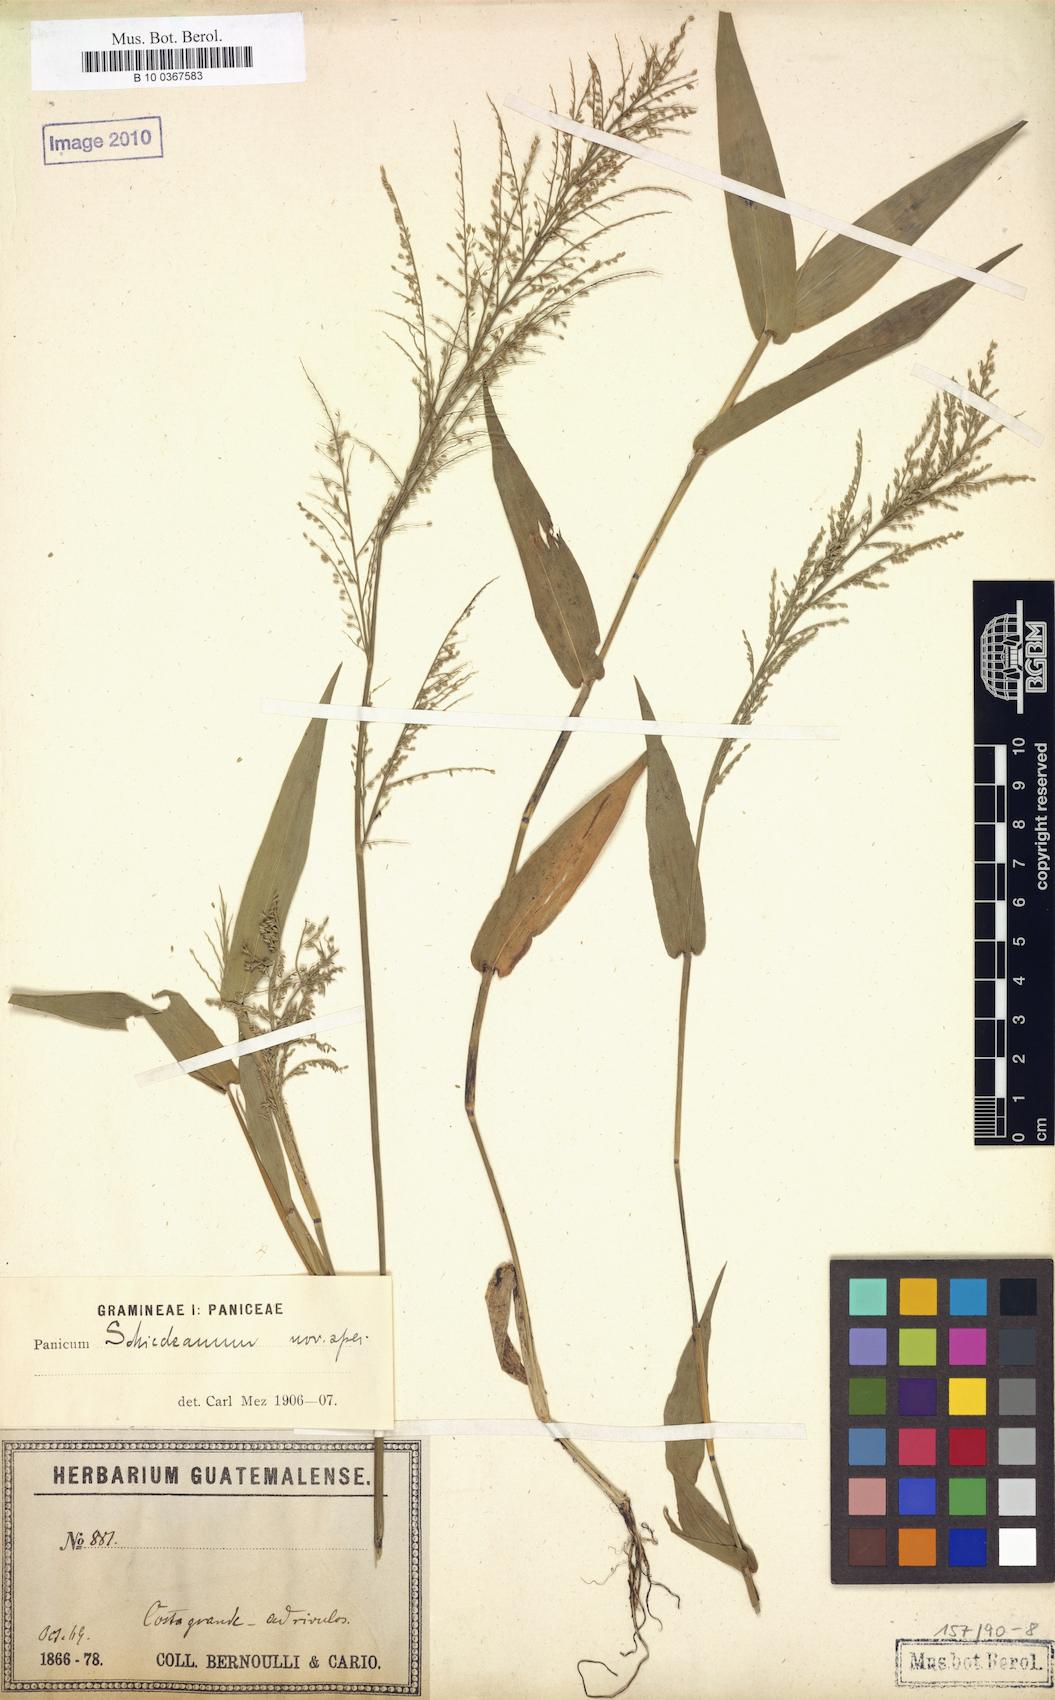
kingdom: Plantae
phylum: Tracheophyta
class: Liliopsida
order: Poales
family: Poaceae
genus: Rugoloa
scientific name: Rugoloa polygonata
